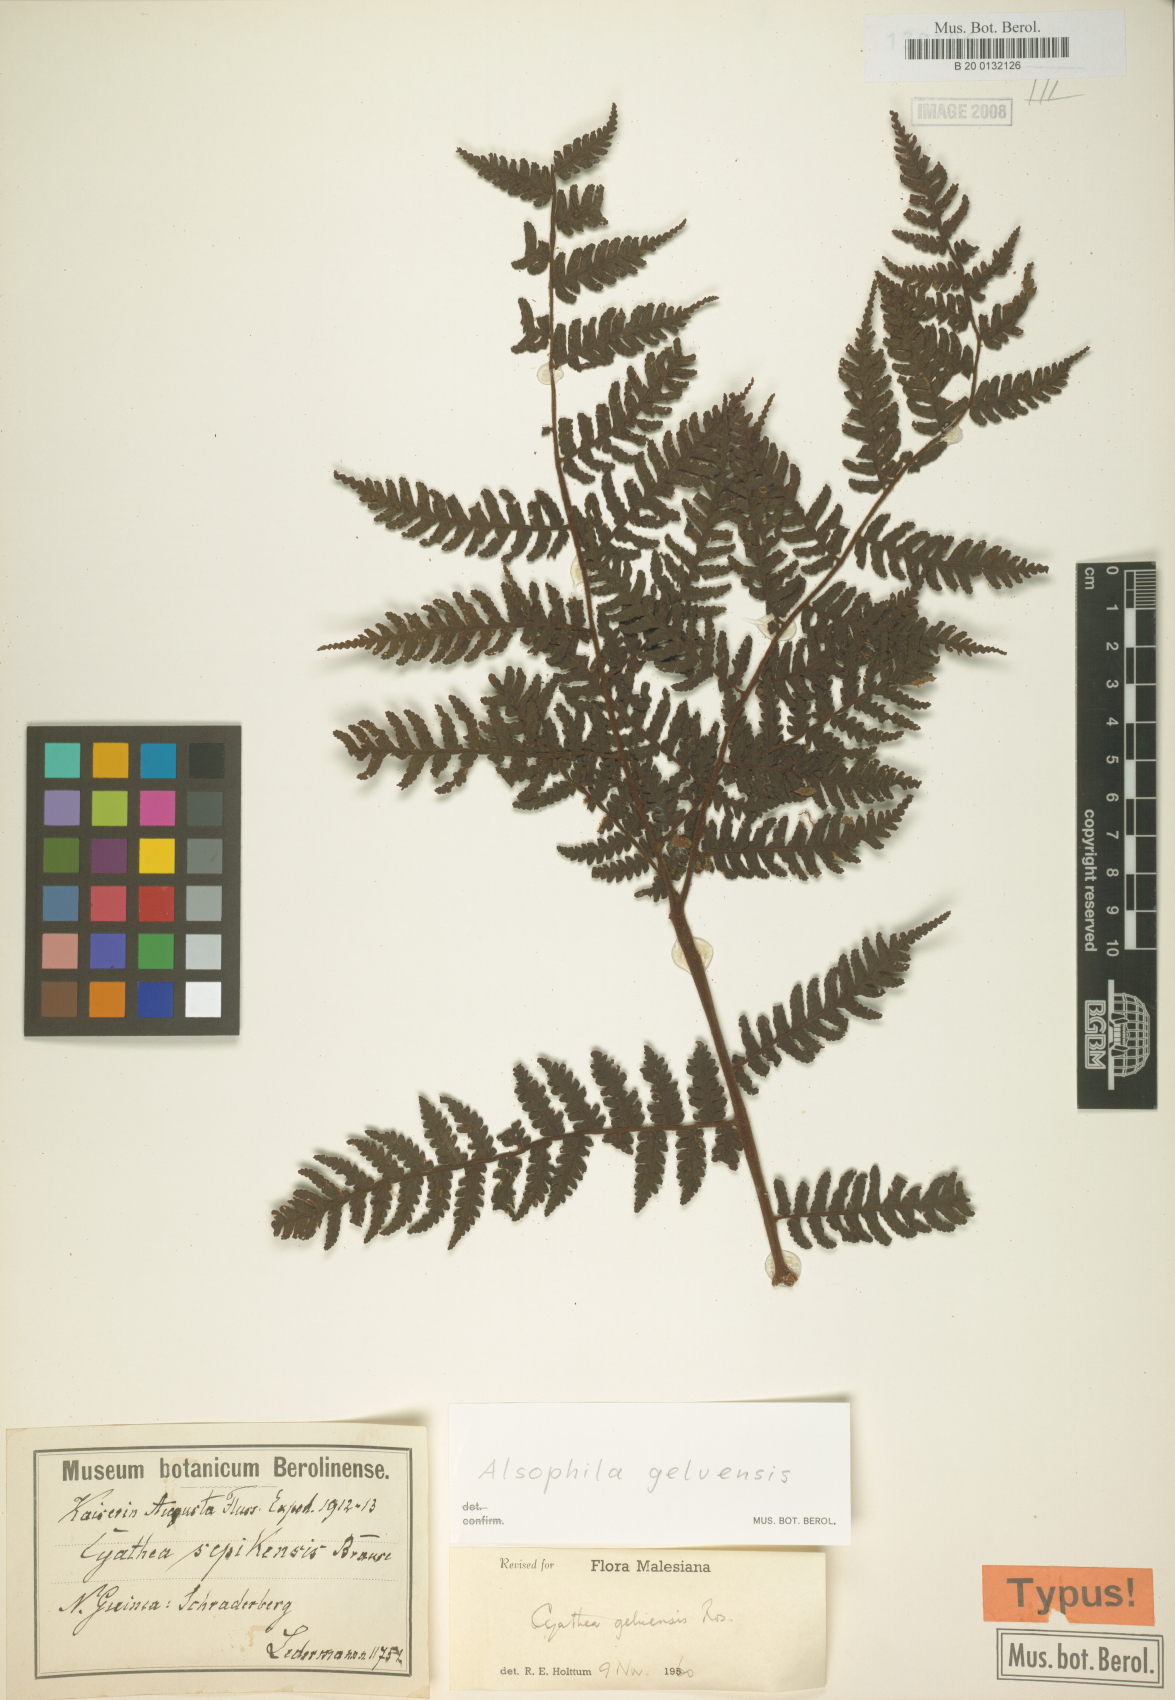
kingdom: Plantae
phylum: Tracheophyta
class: Polypodiopsida
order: Cyatheales
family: Cyatheaceae
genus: Alsophila
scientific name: Alsophila geluensis
